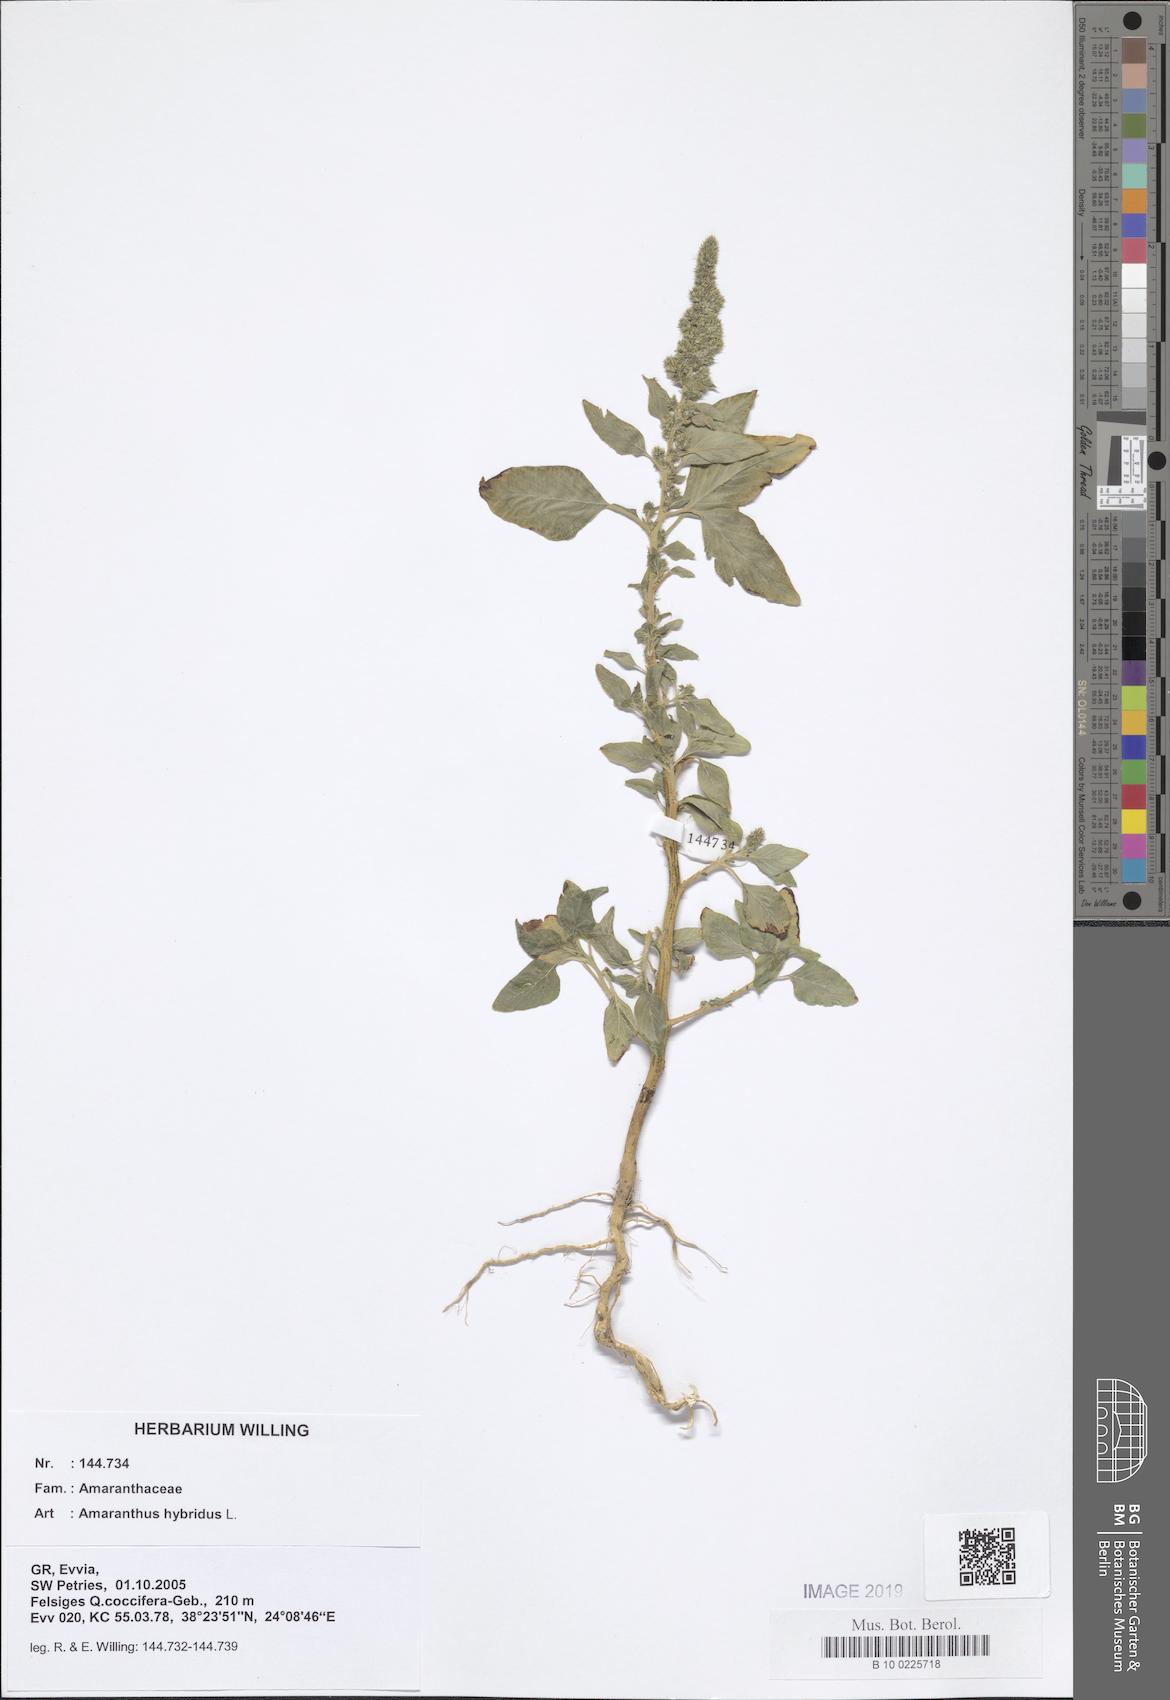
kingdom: Plantae
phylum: Tracheophyta
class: Magnoliopsida
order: Caryophyllales
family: Amaranthaceae
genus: Amaranthus
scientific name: Amaranthus hybridus
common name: Green amaranth
